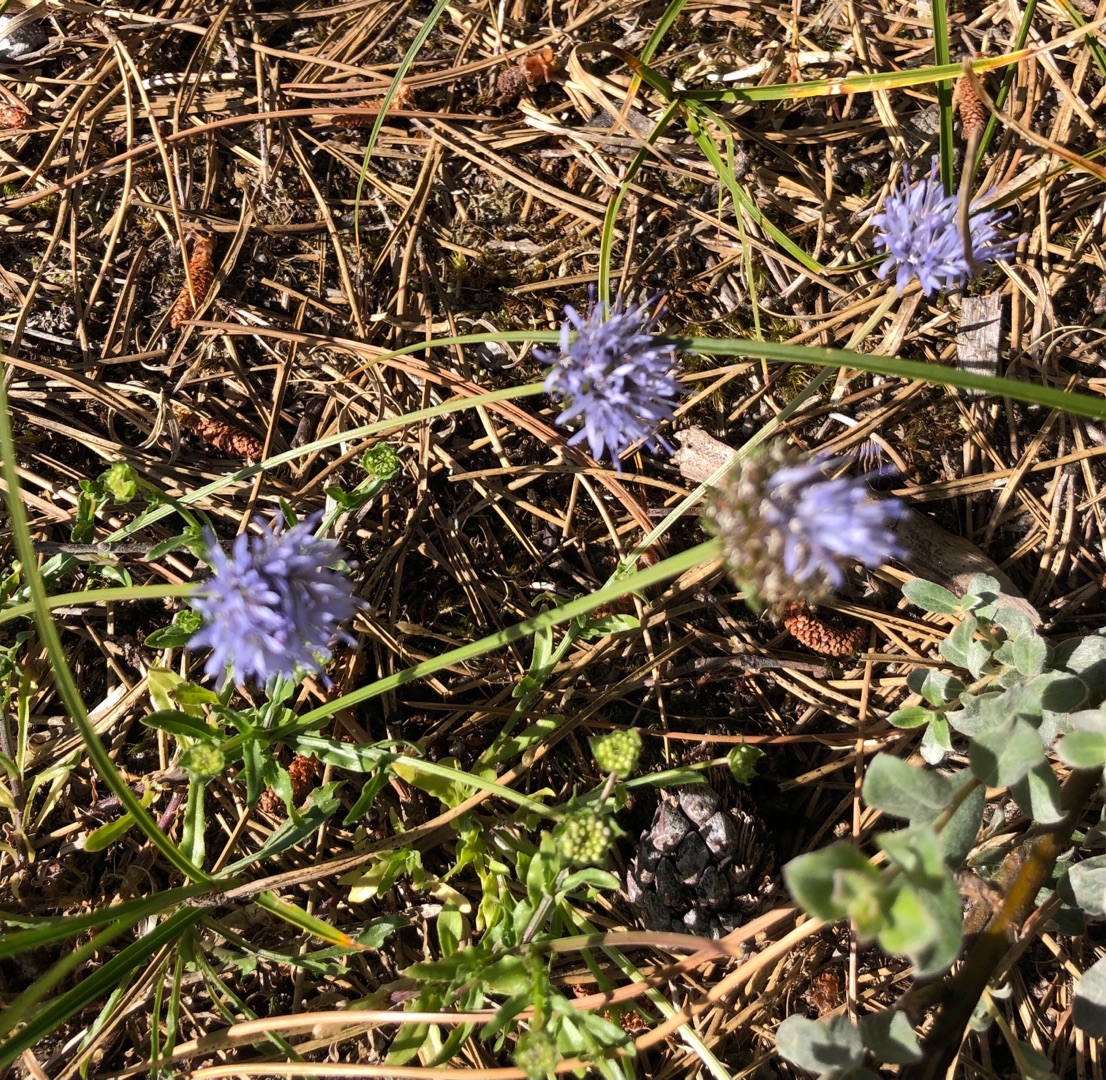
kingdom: Plantae
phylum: Tracheophyta
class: Magnoliopsida
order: Asterales
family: Campanulaceae
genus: Jasione
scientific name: Jasione montana
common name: Blåmunke
